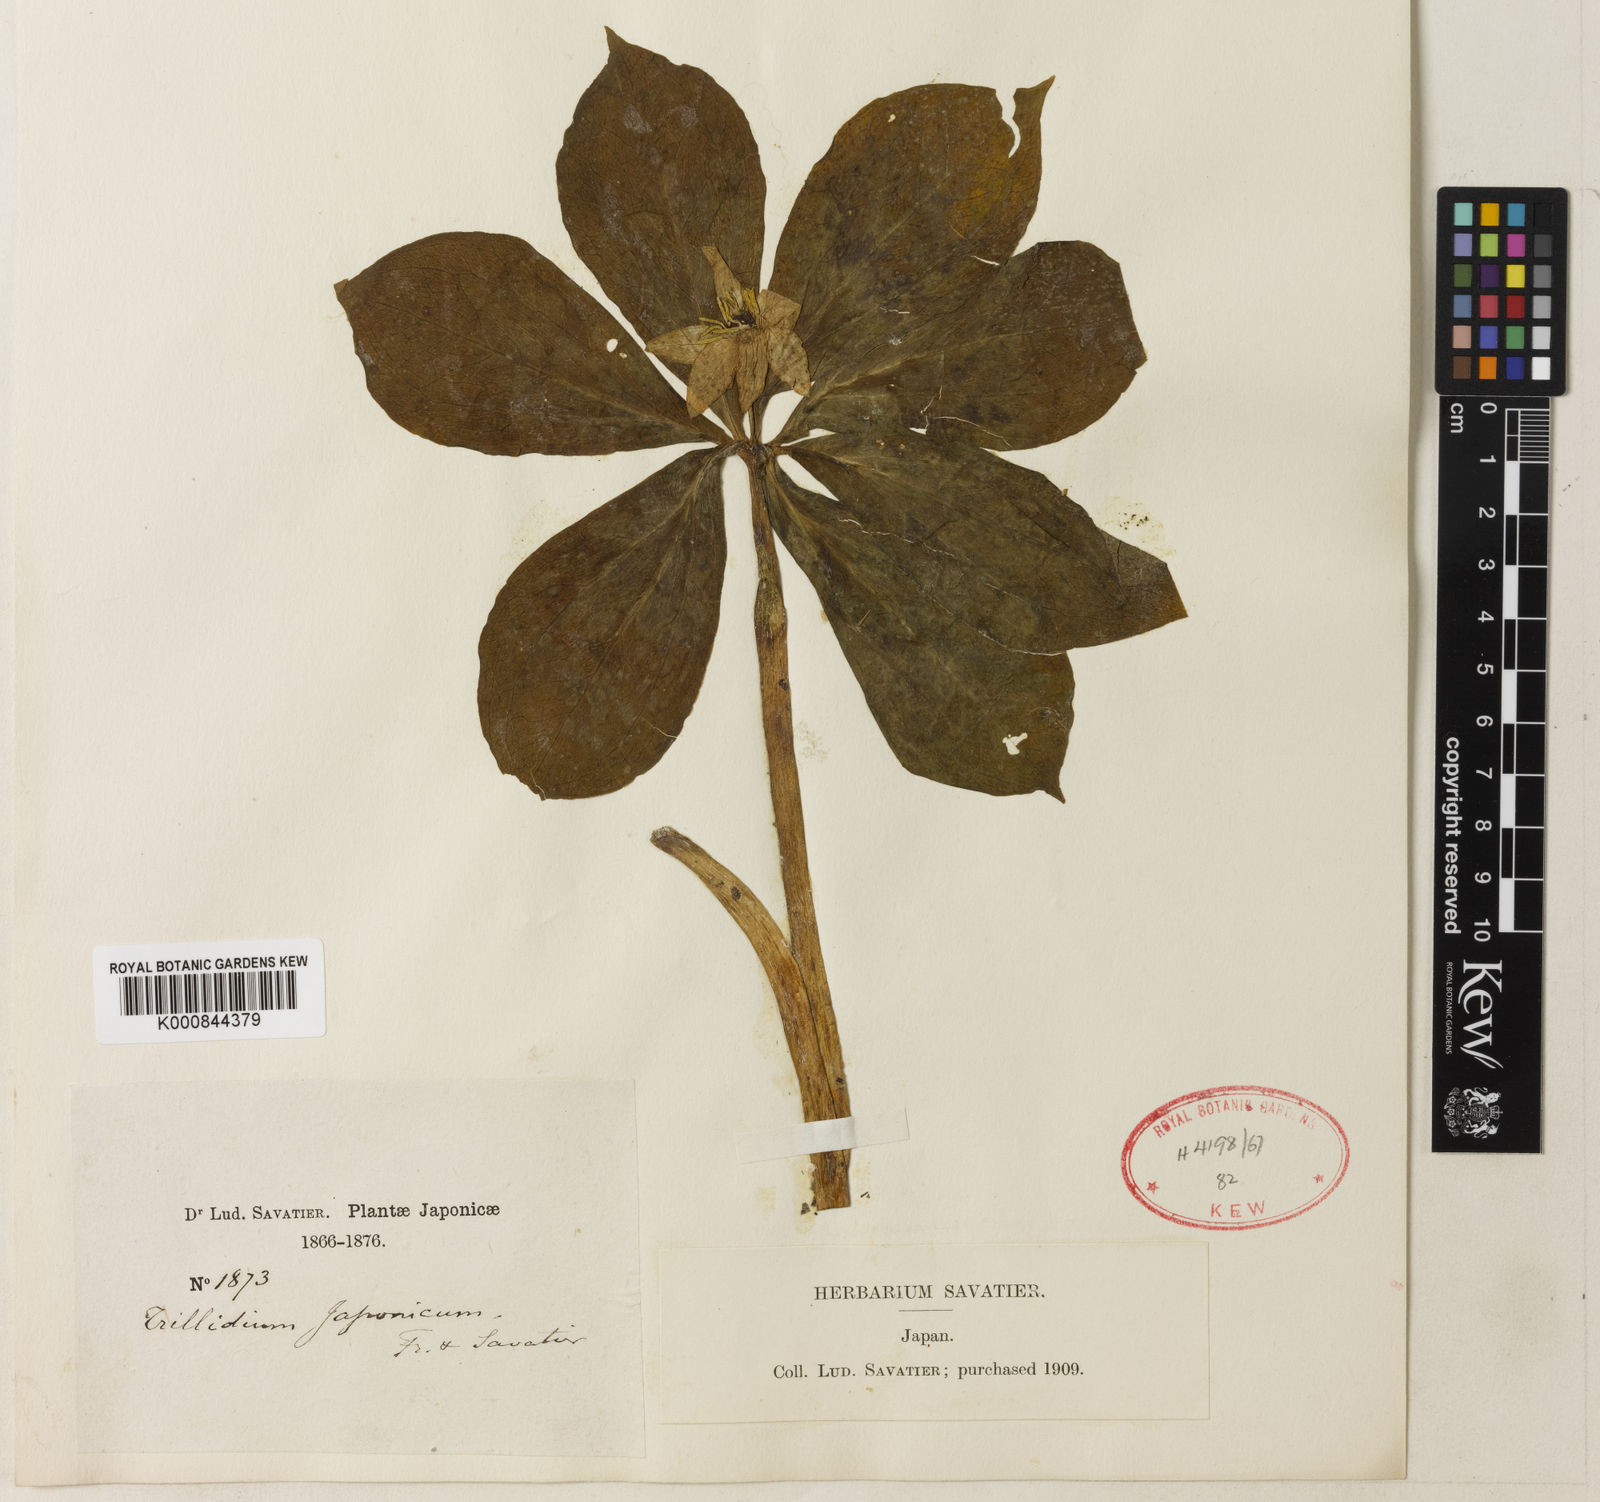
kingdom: Plantae
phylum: Tracheophyta
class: Liliopsida
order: Liliales
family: Melanthiaceae
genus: Paris
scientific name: Paris japonica
